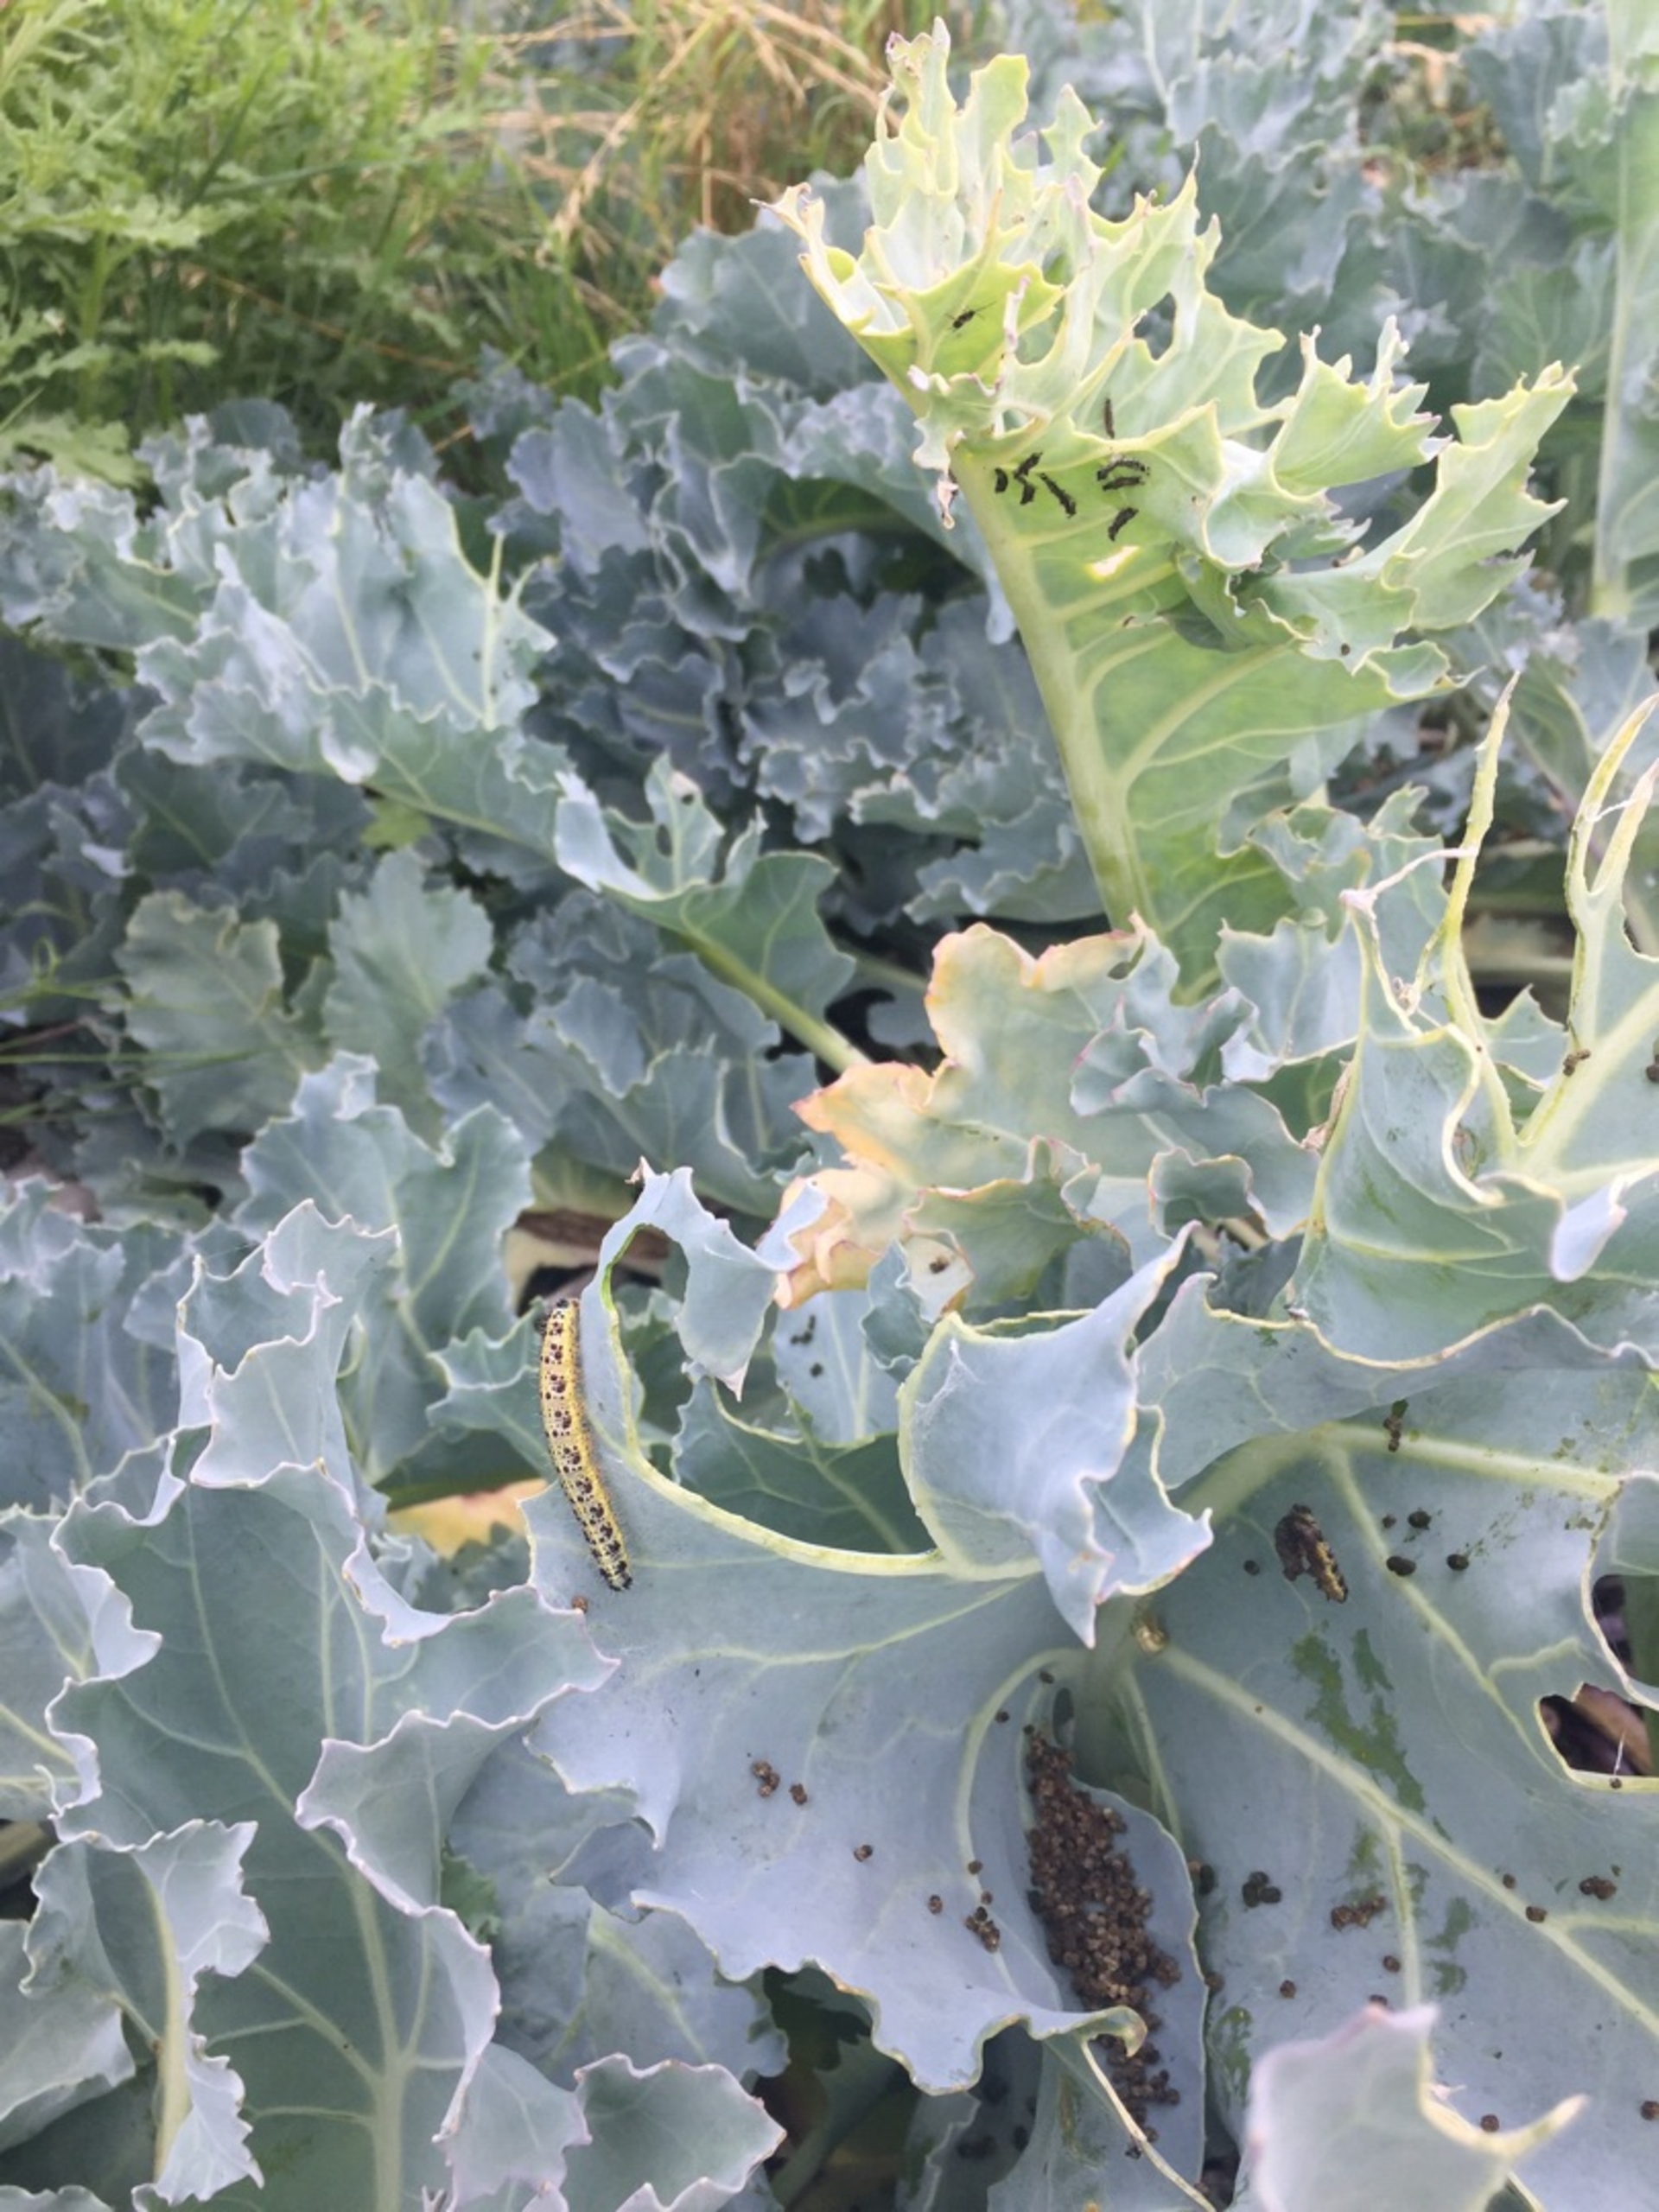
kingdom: Animalia
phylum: Arthropoda
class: Insecta
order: Lepidoptera
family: Pieridae
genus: Pieris
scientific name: Pieris brassicae
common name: Stor kålsommerfugl
